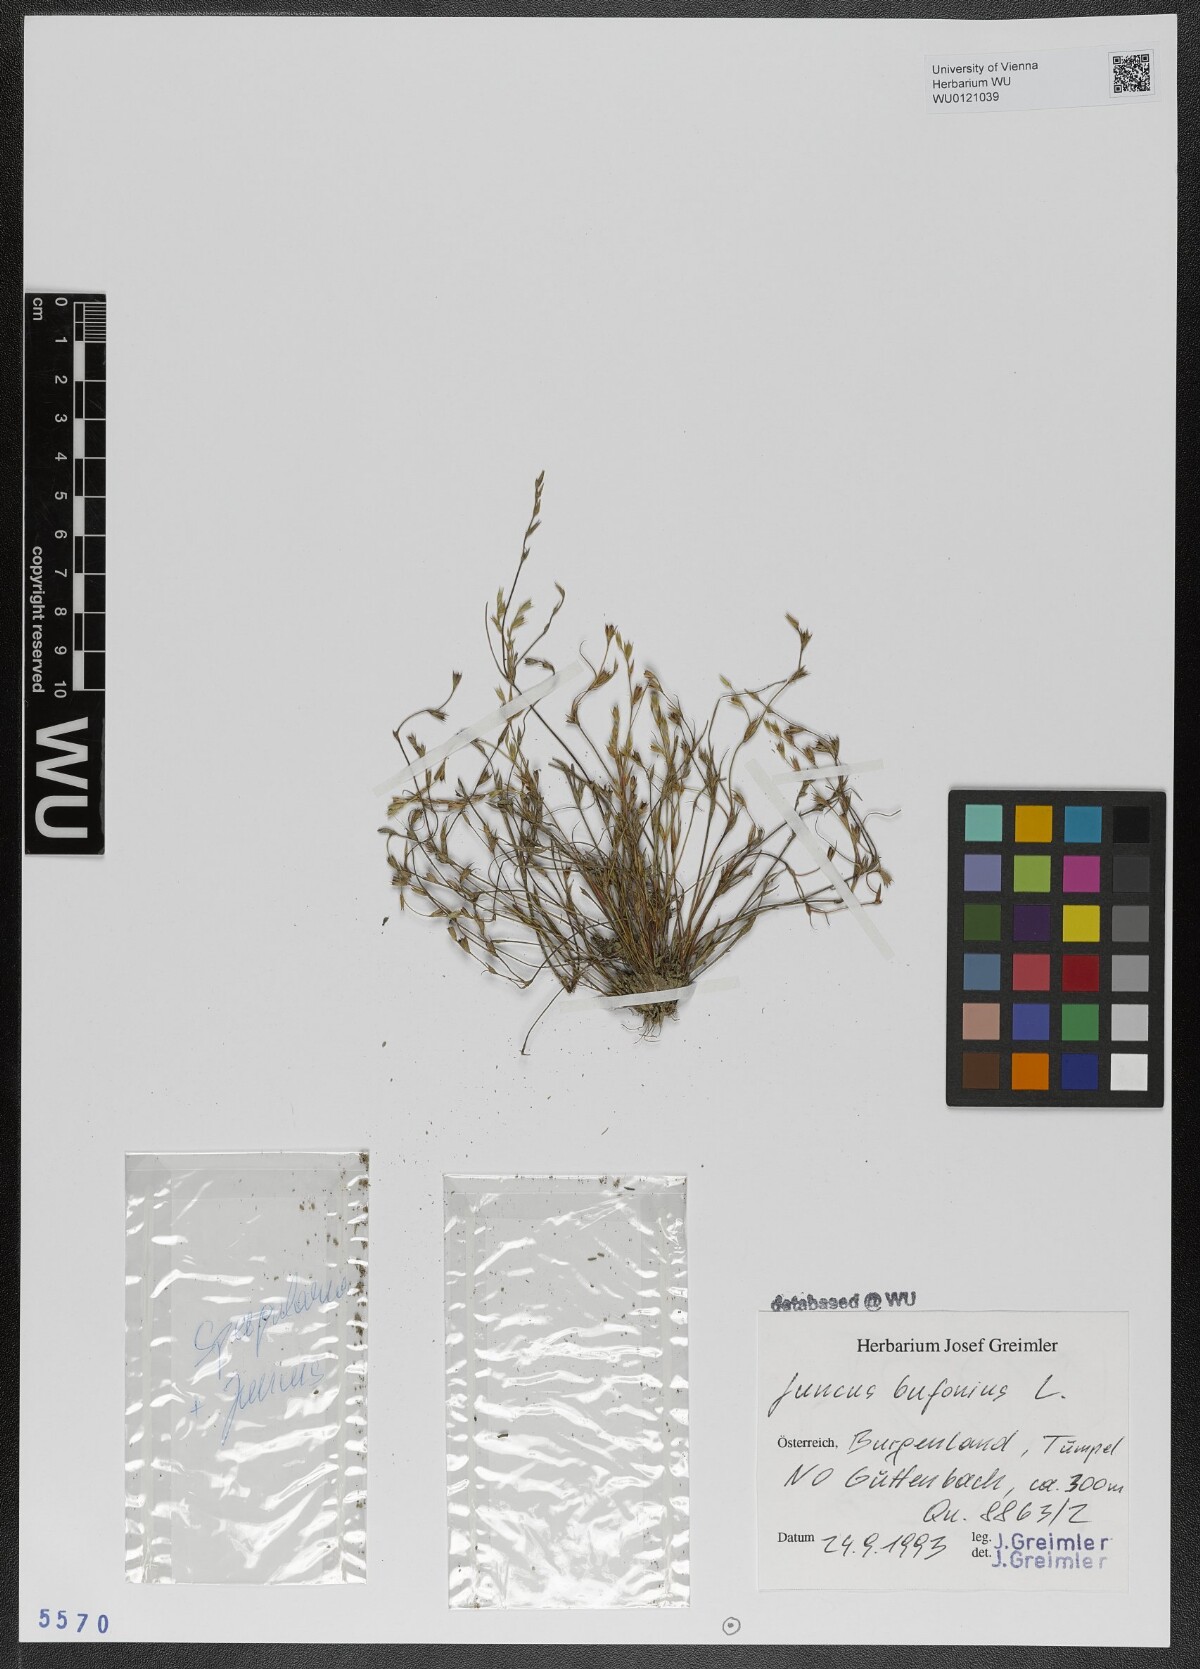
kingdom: Plantae
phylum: Tracheophyta
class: Liliopsida
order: Poales
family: Juncaceae
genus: Juncus
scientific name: Juncus bufonius
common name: Toad rush
